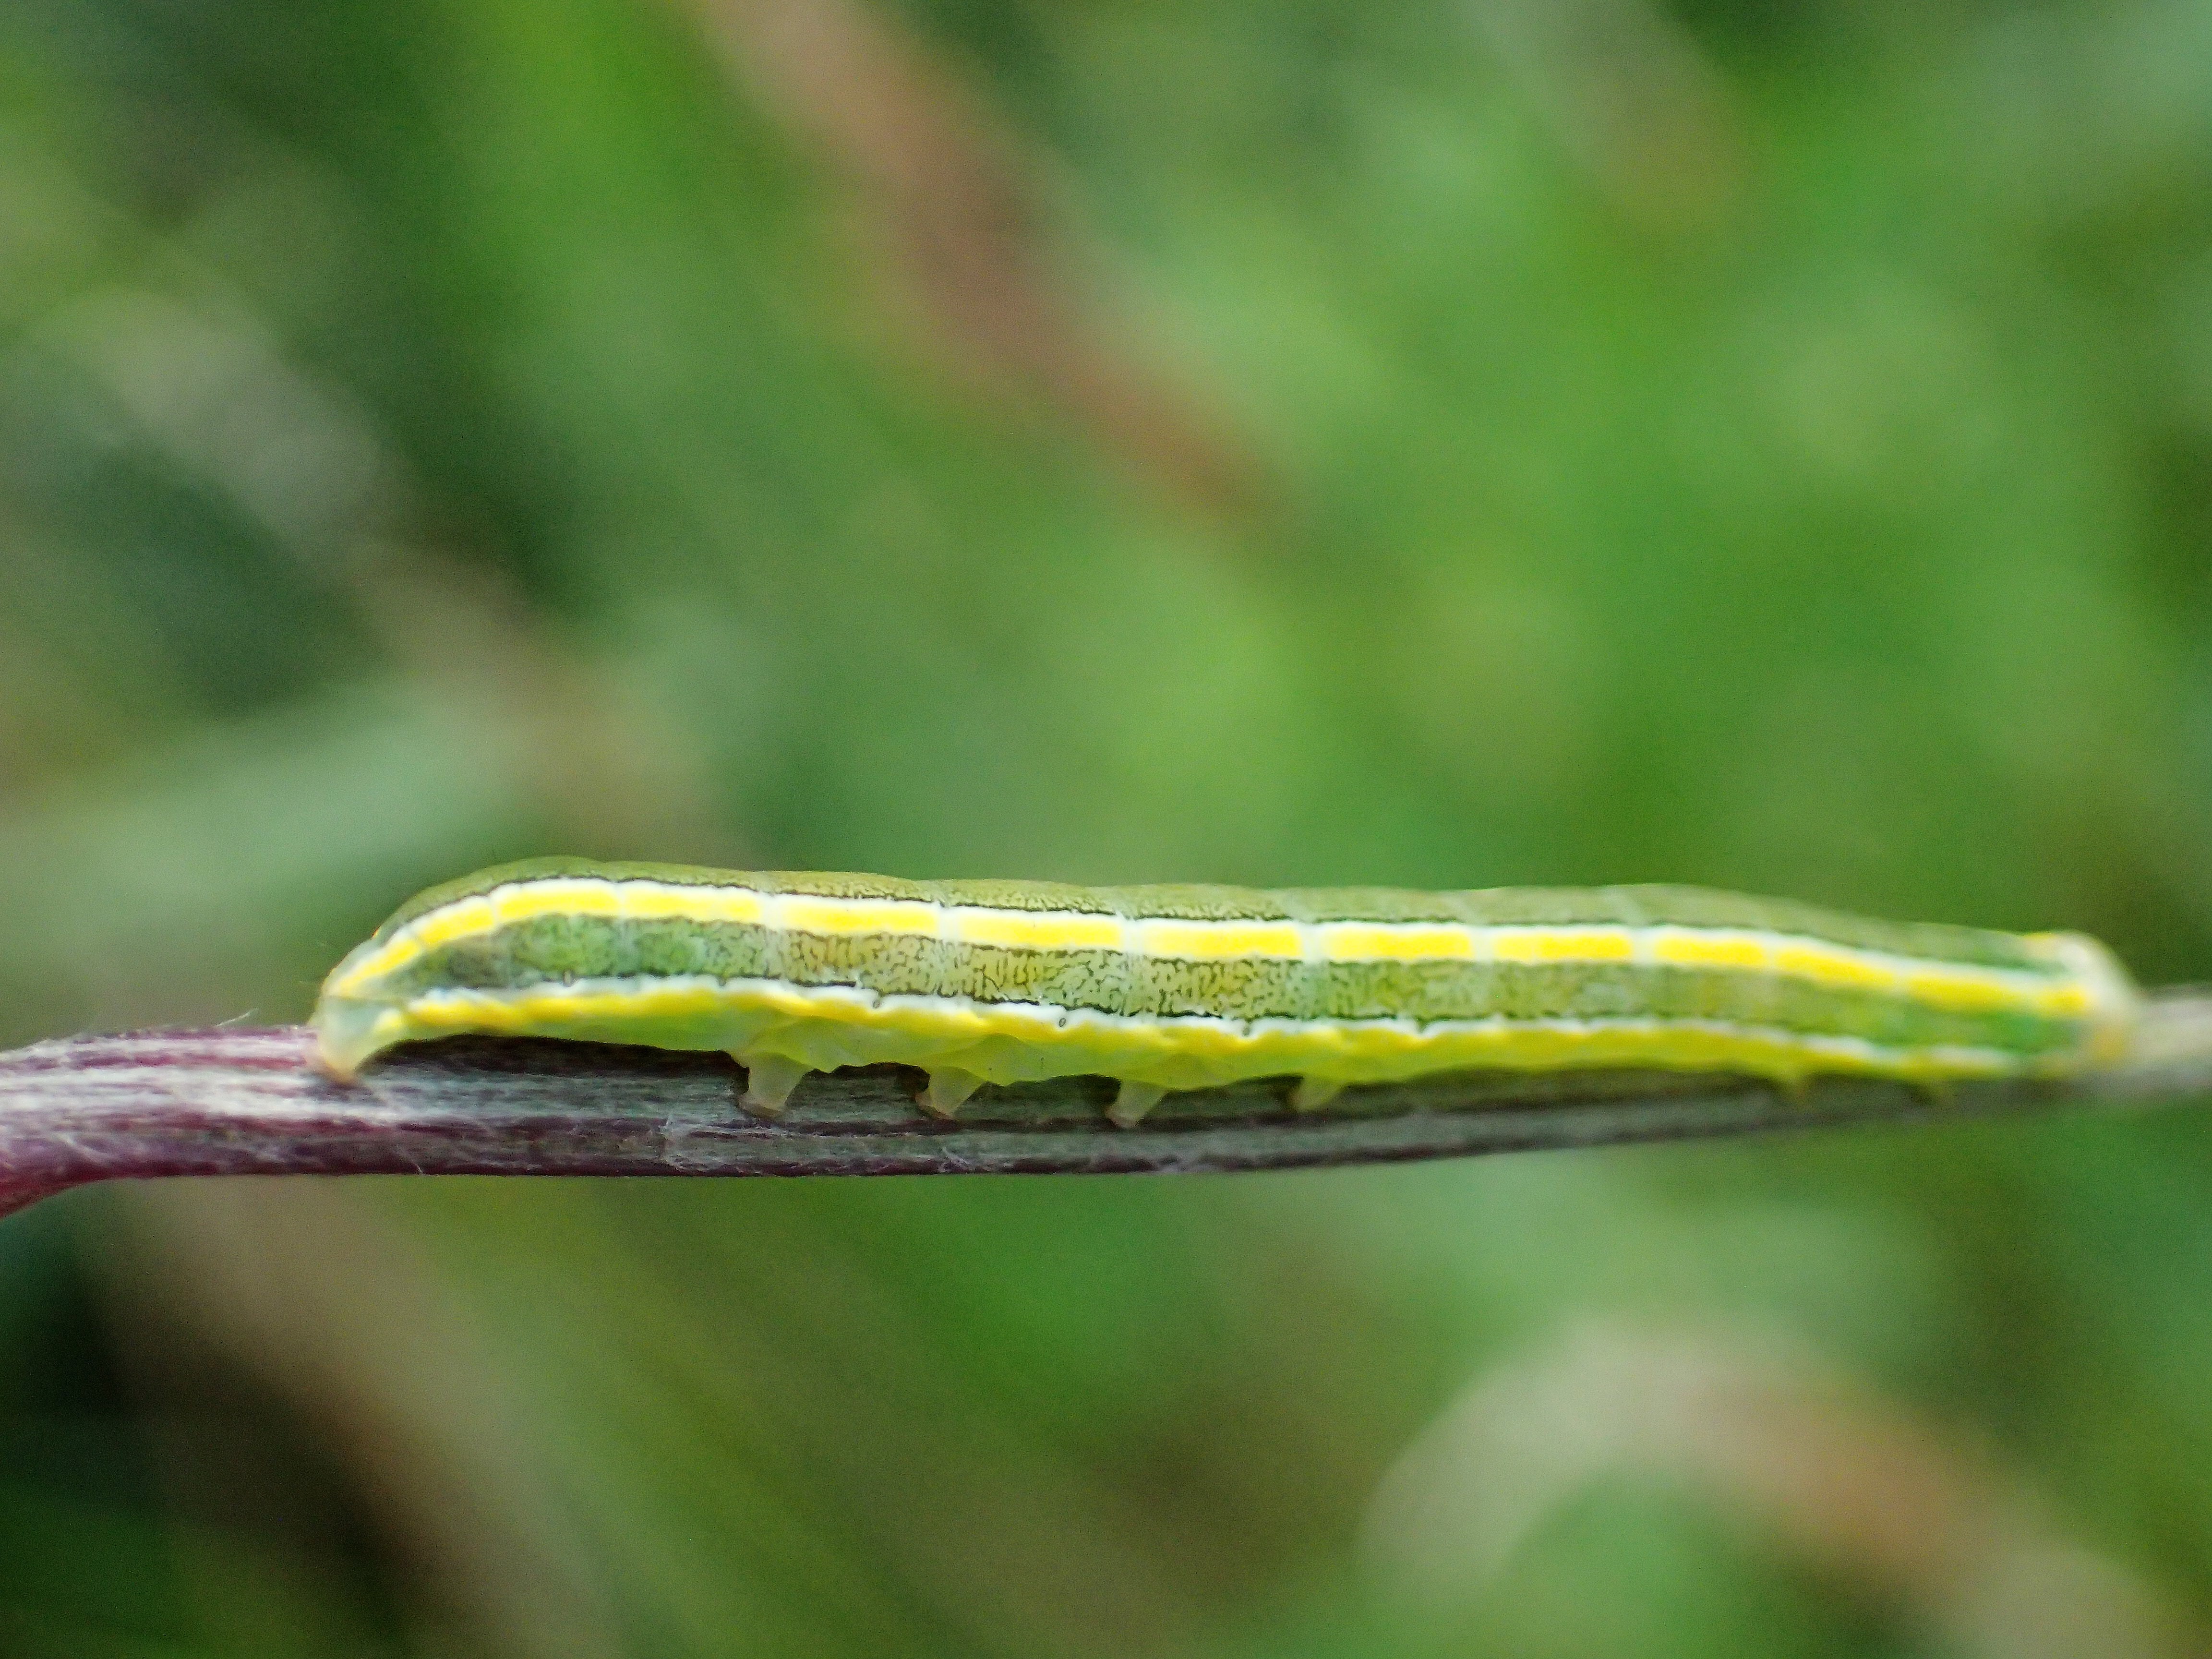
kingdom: Animalia
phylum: Arthropoda
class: Insecta
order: Lepidoptera
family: Noctuidae
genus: Ceramica
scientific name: Ceramica pisi
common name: Broom moth
